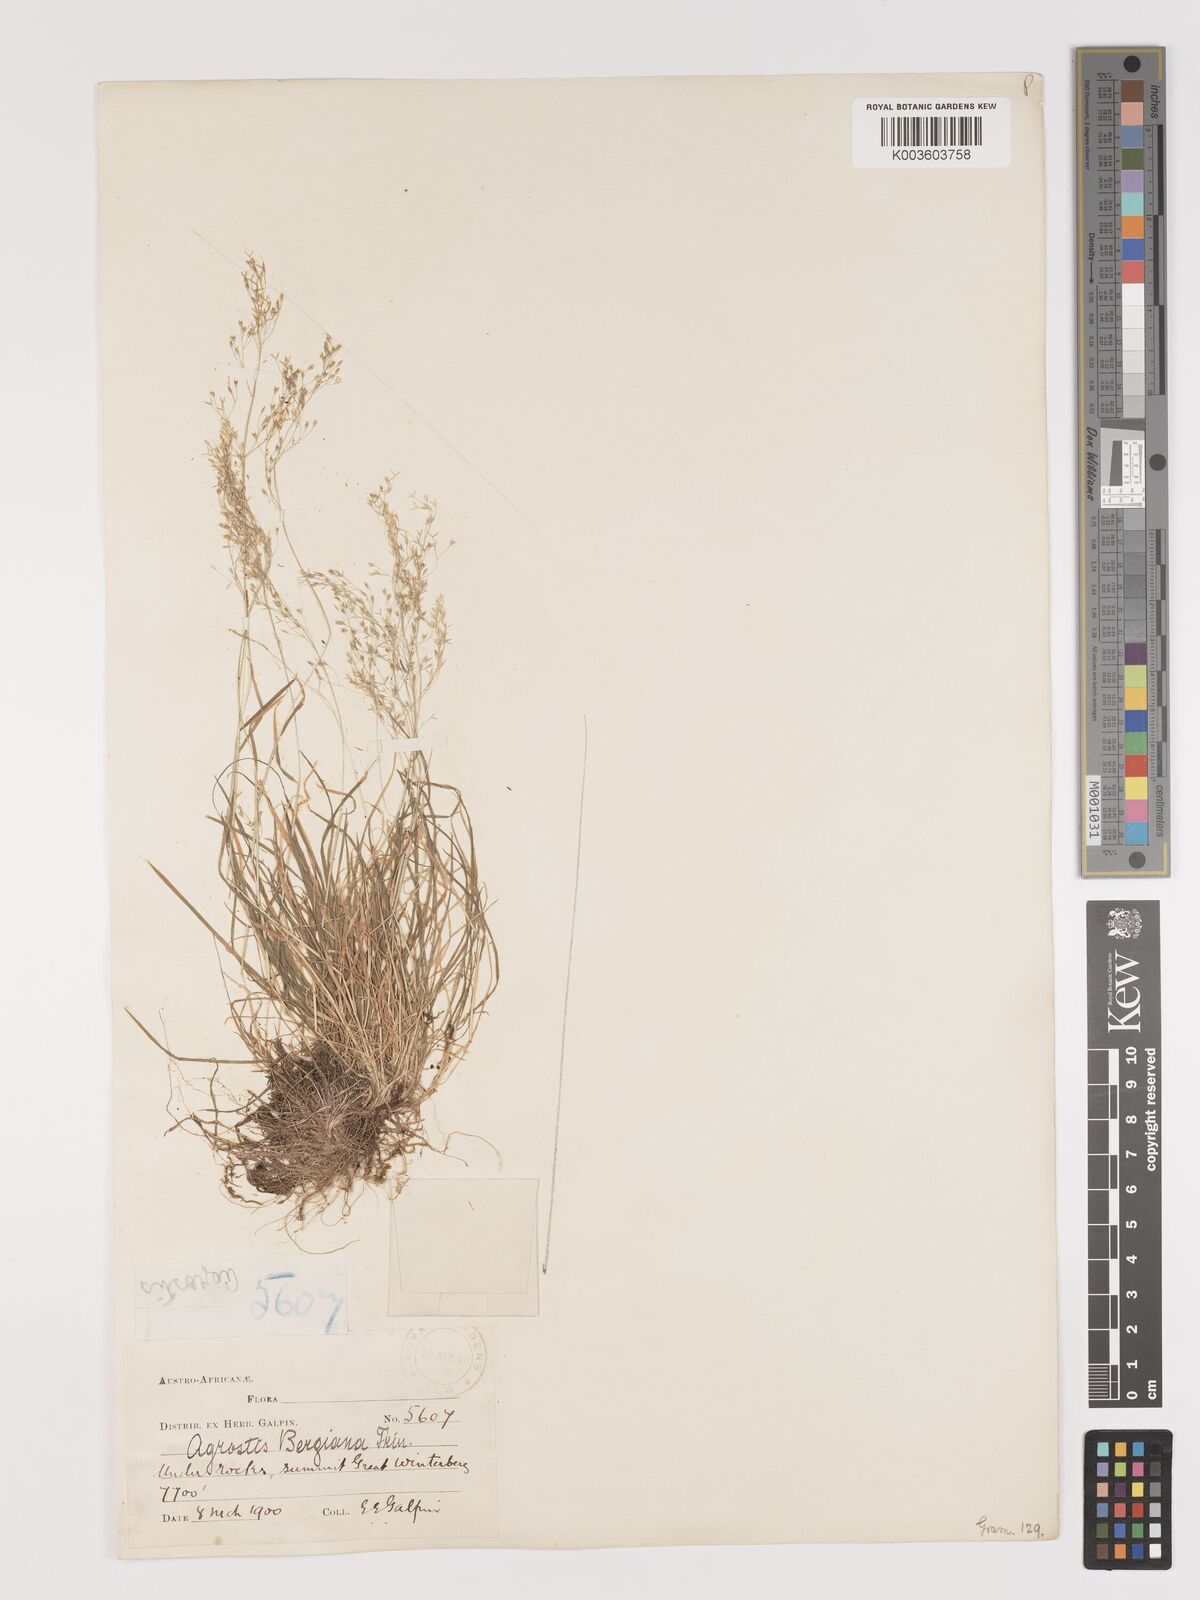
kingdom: Plantae
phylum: Tracheophyta
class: Liliopsida
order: Poales
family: Poaceae
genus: Agrostis
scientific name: Agrostis bergiana
